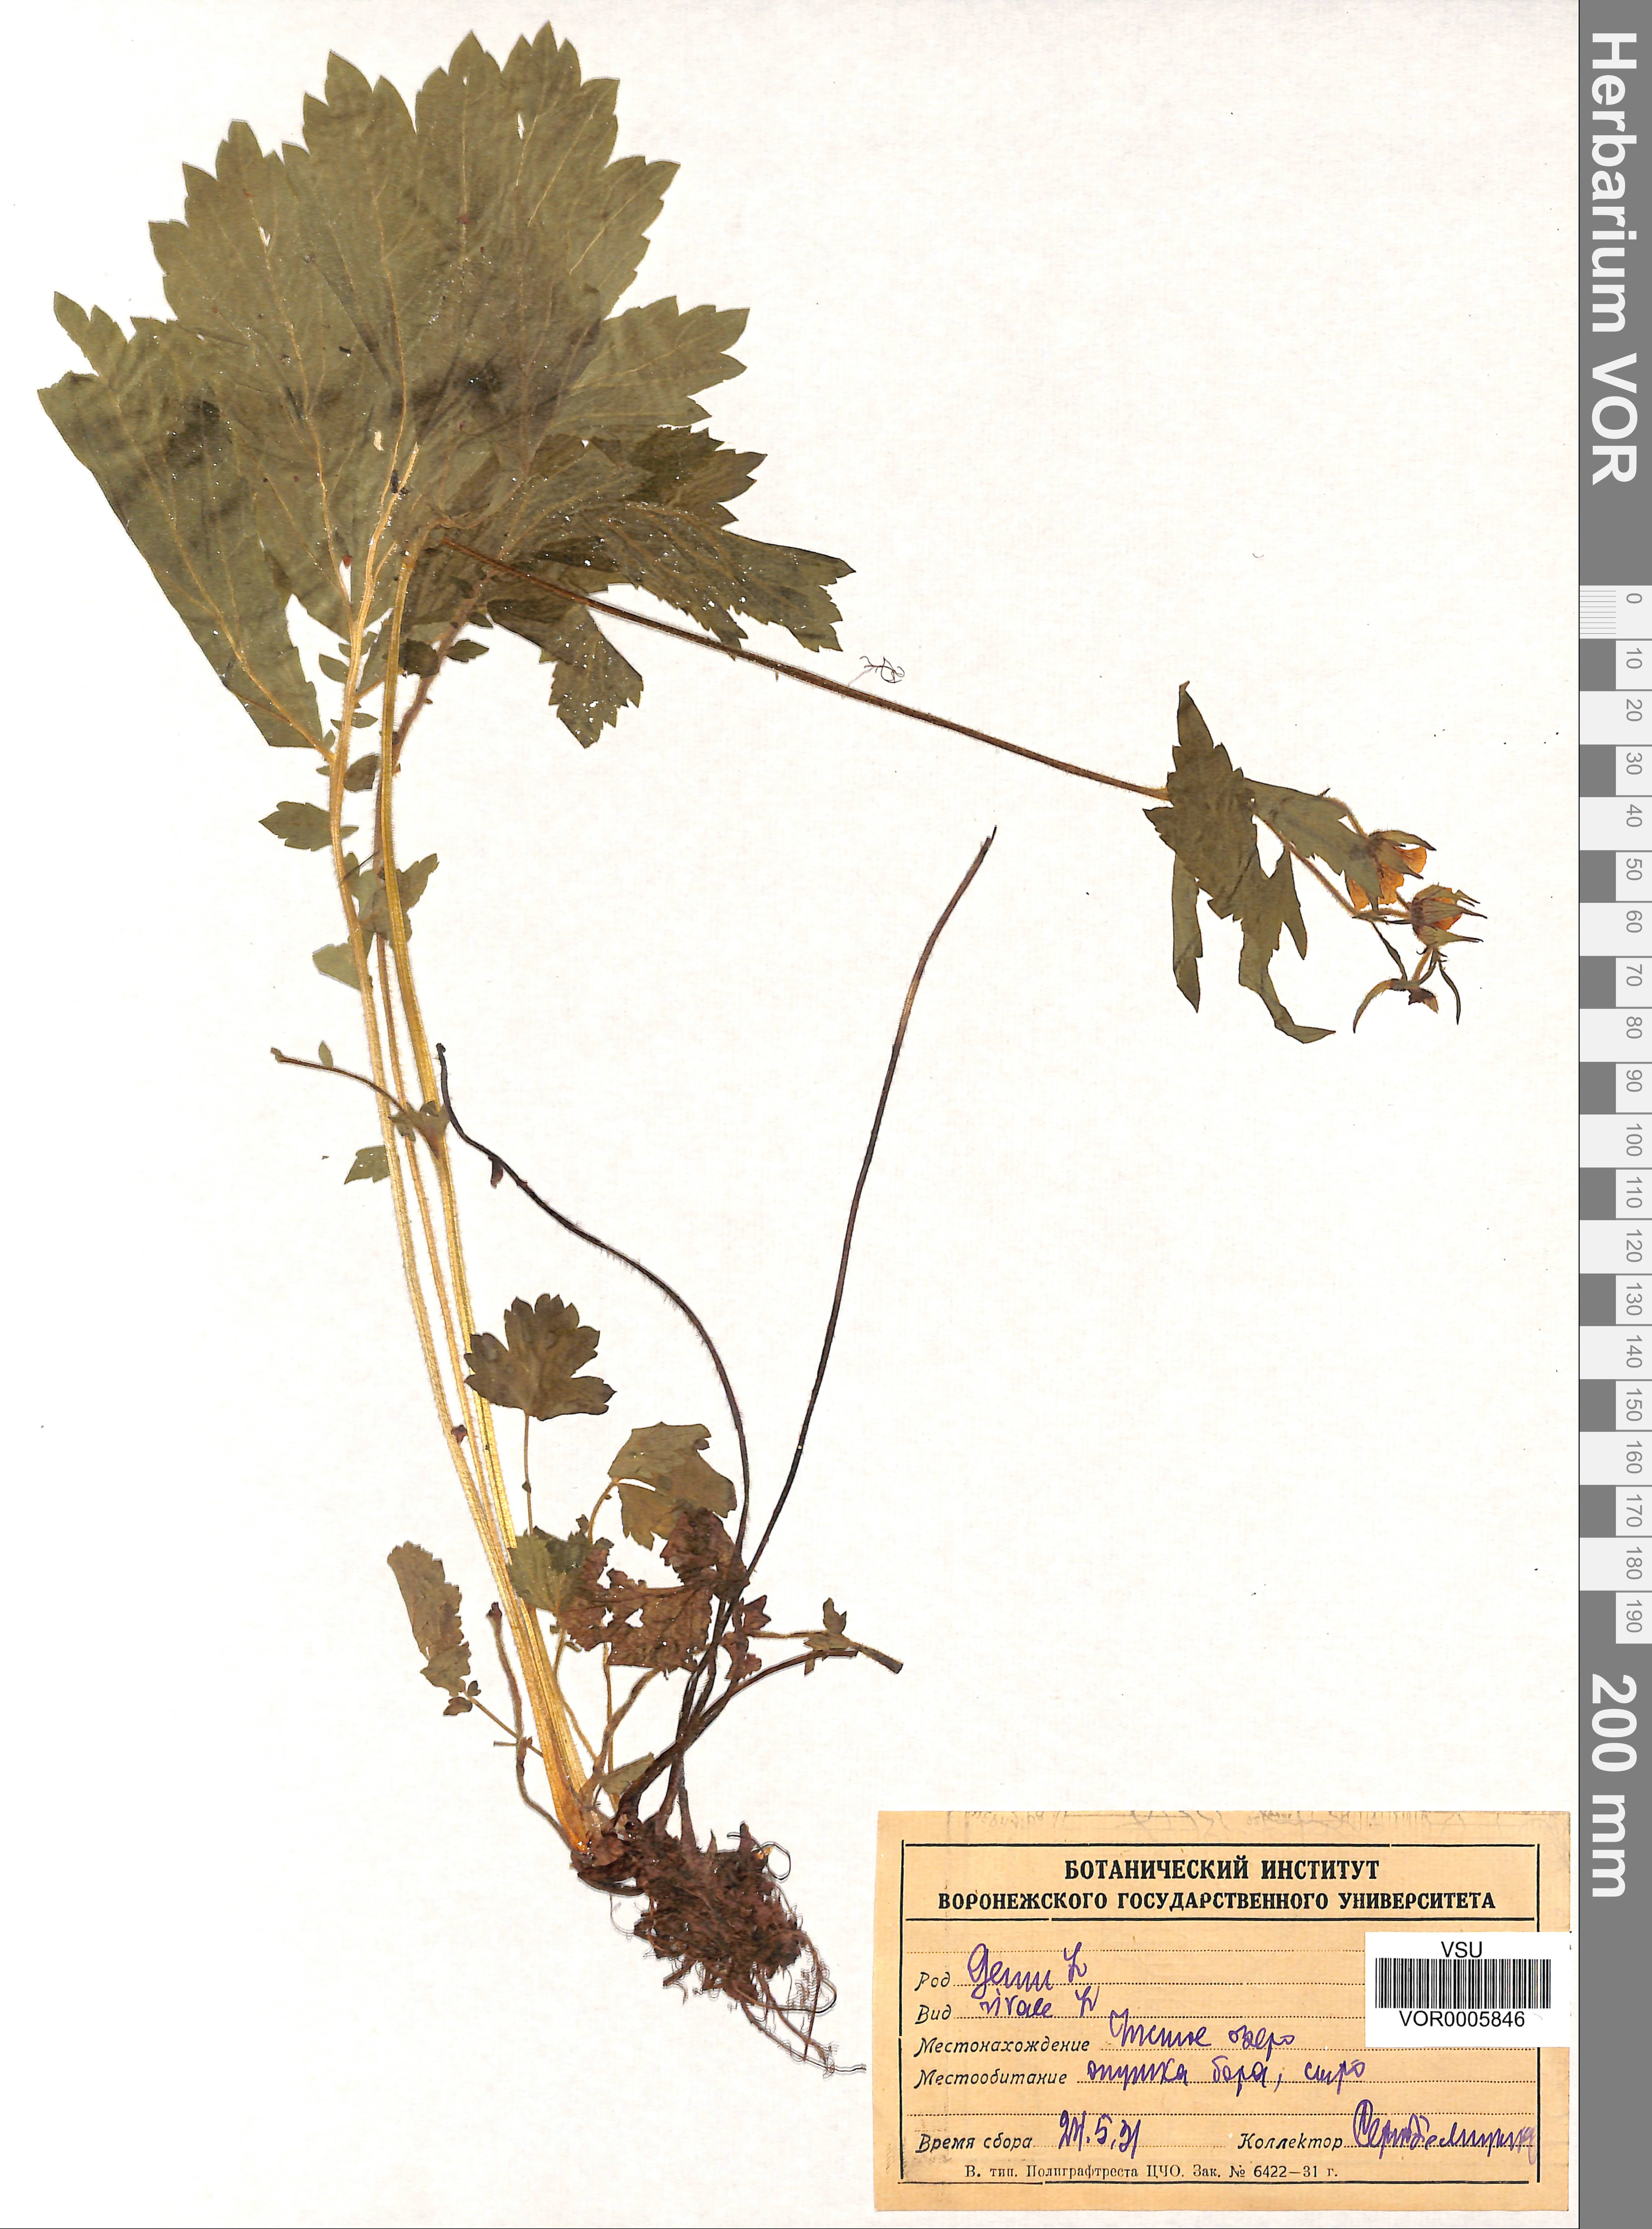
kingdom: Plantae
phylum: Tracheophyta
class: Magnoliopsida
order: Rosales
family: Rosaceae
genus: Geum
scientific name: Geum rivale
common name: Water avens
